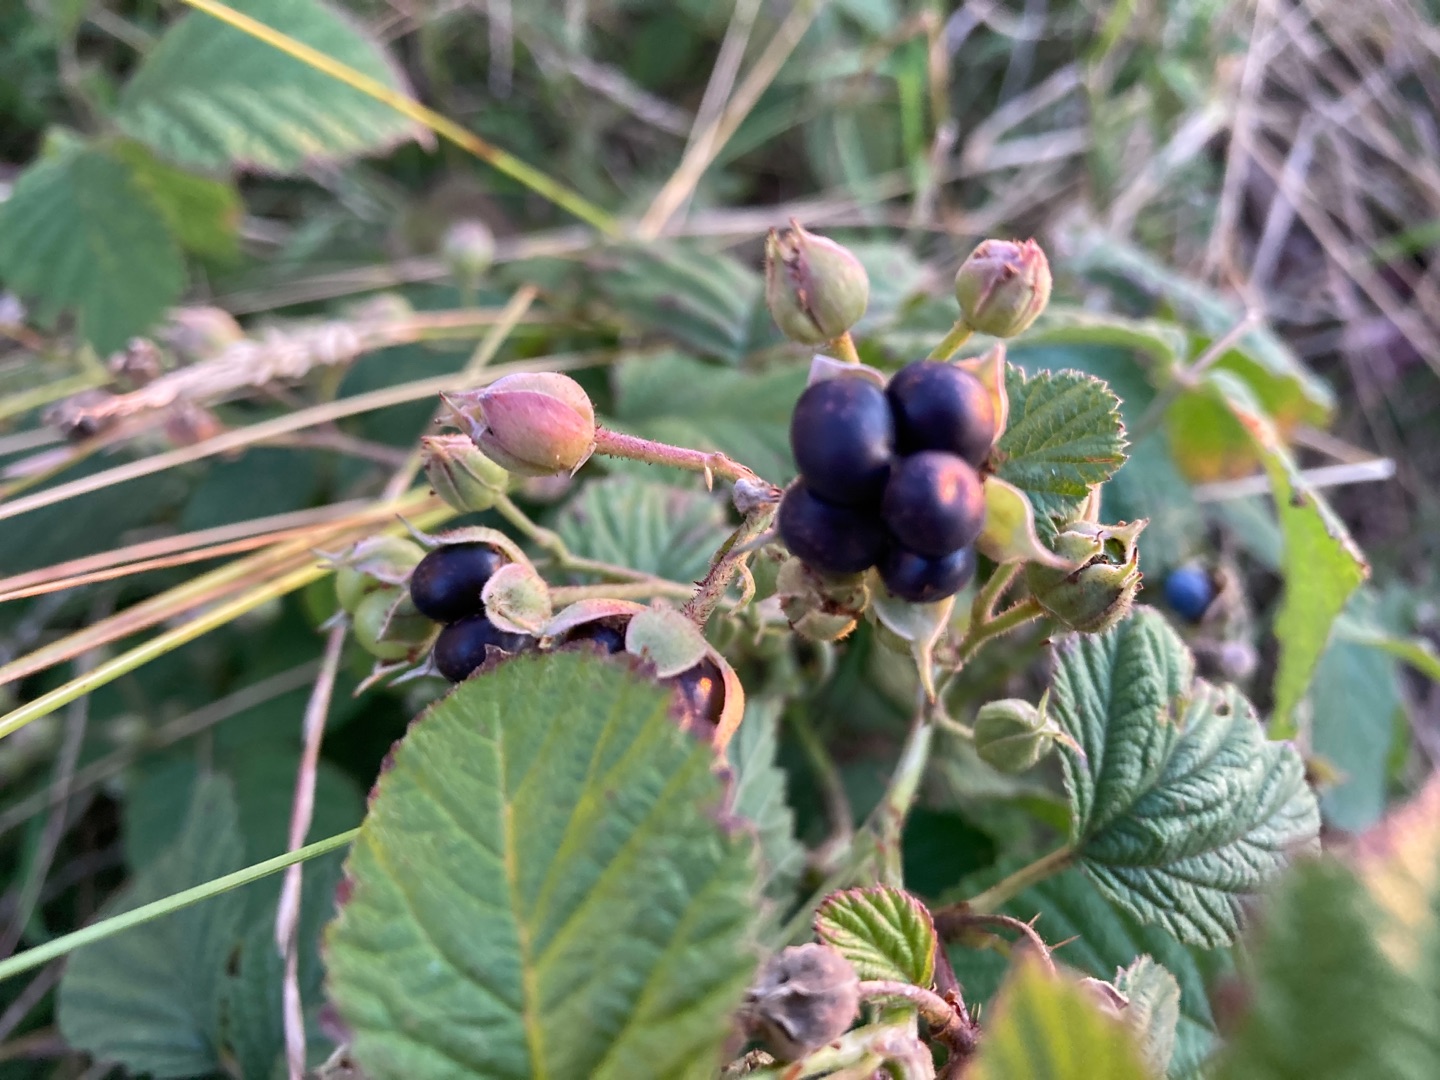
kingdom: Plantae
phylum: Tracheophyta
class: Magnoliopsida
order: Rosales
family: Rosaceae
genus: Rubus
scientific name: Rubus caesius
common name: Korbær
